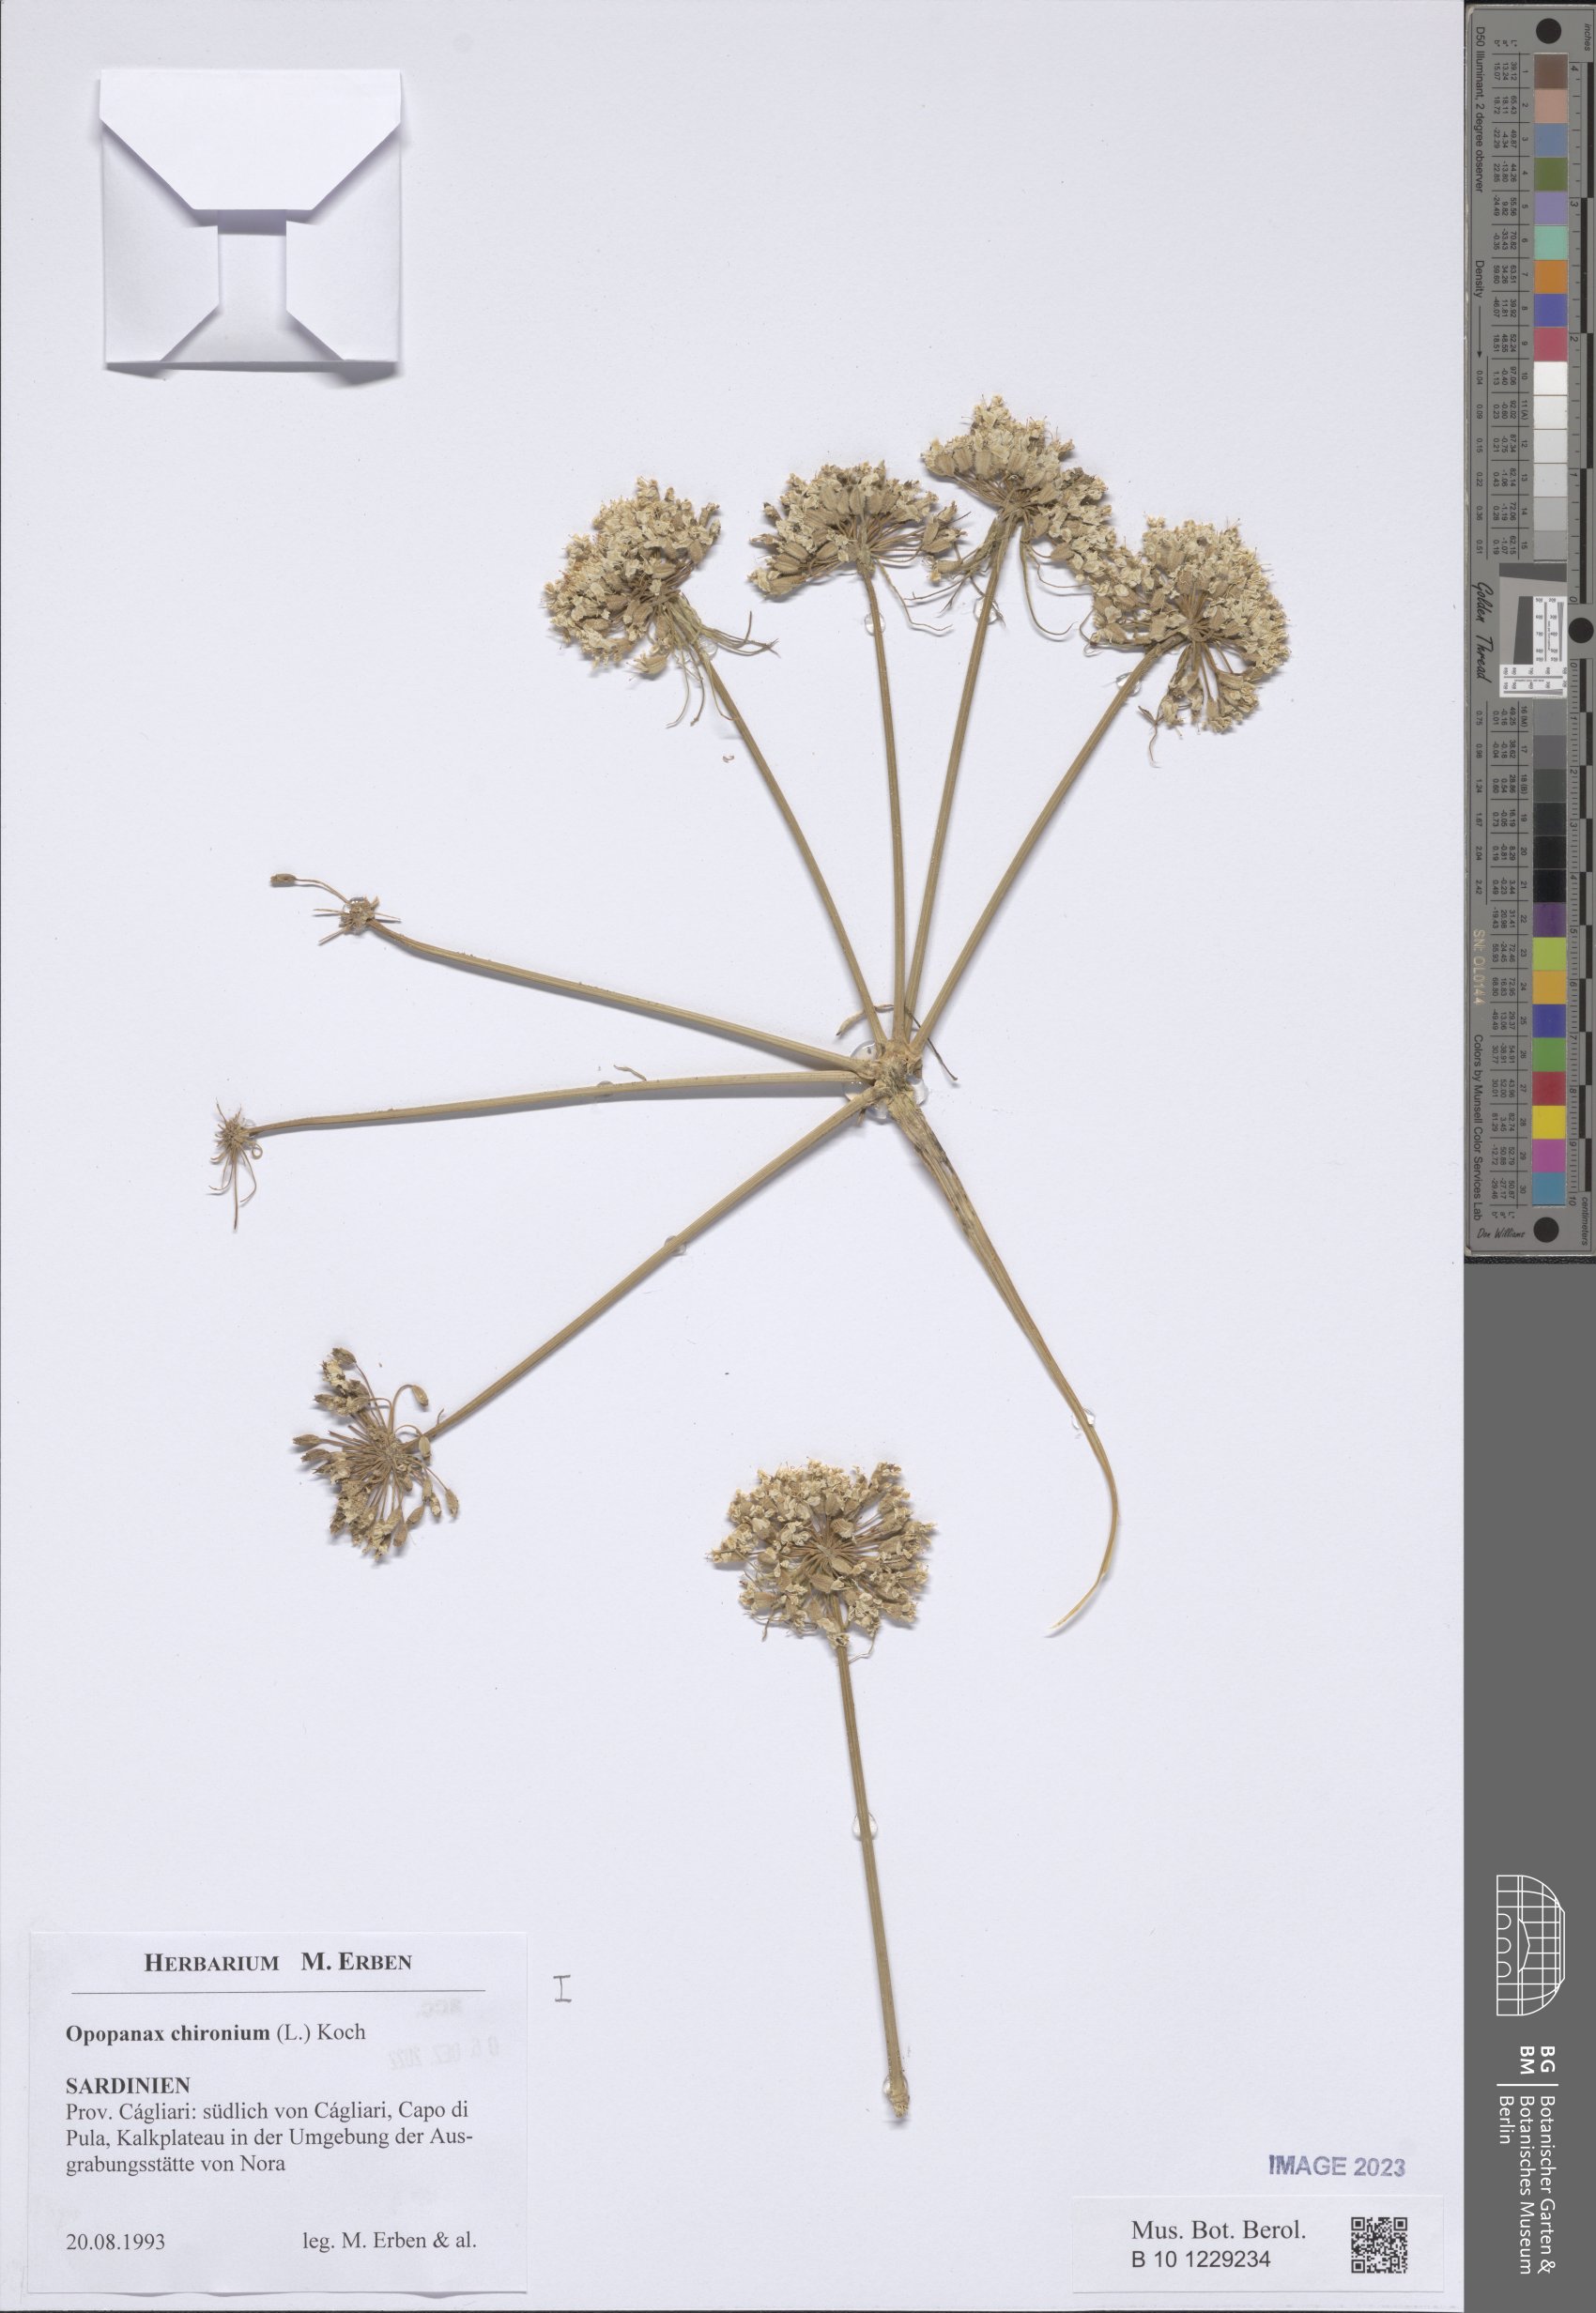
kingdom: Plantae
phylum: Tracheophyta
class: Magnoliopsida
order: Apiales
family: Apiaceae
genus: Opopanax
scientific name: Opopanax chironium
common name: Hercules-all-heal
